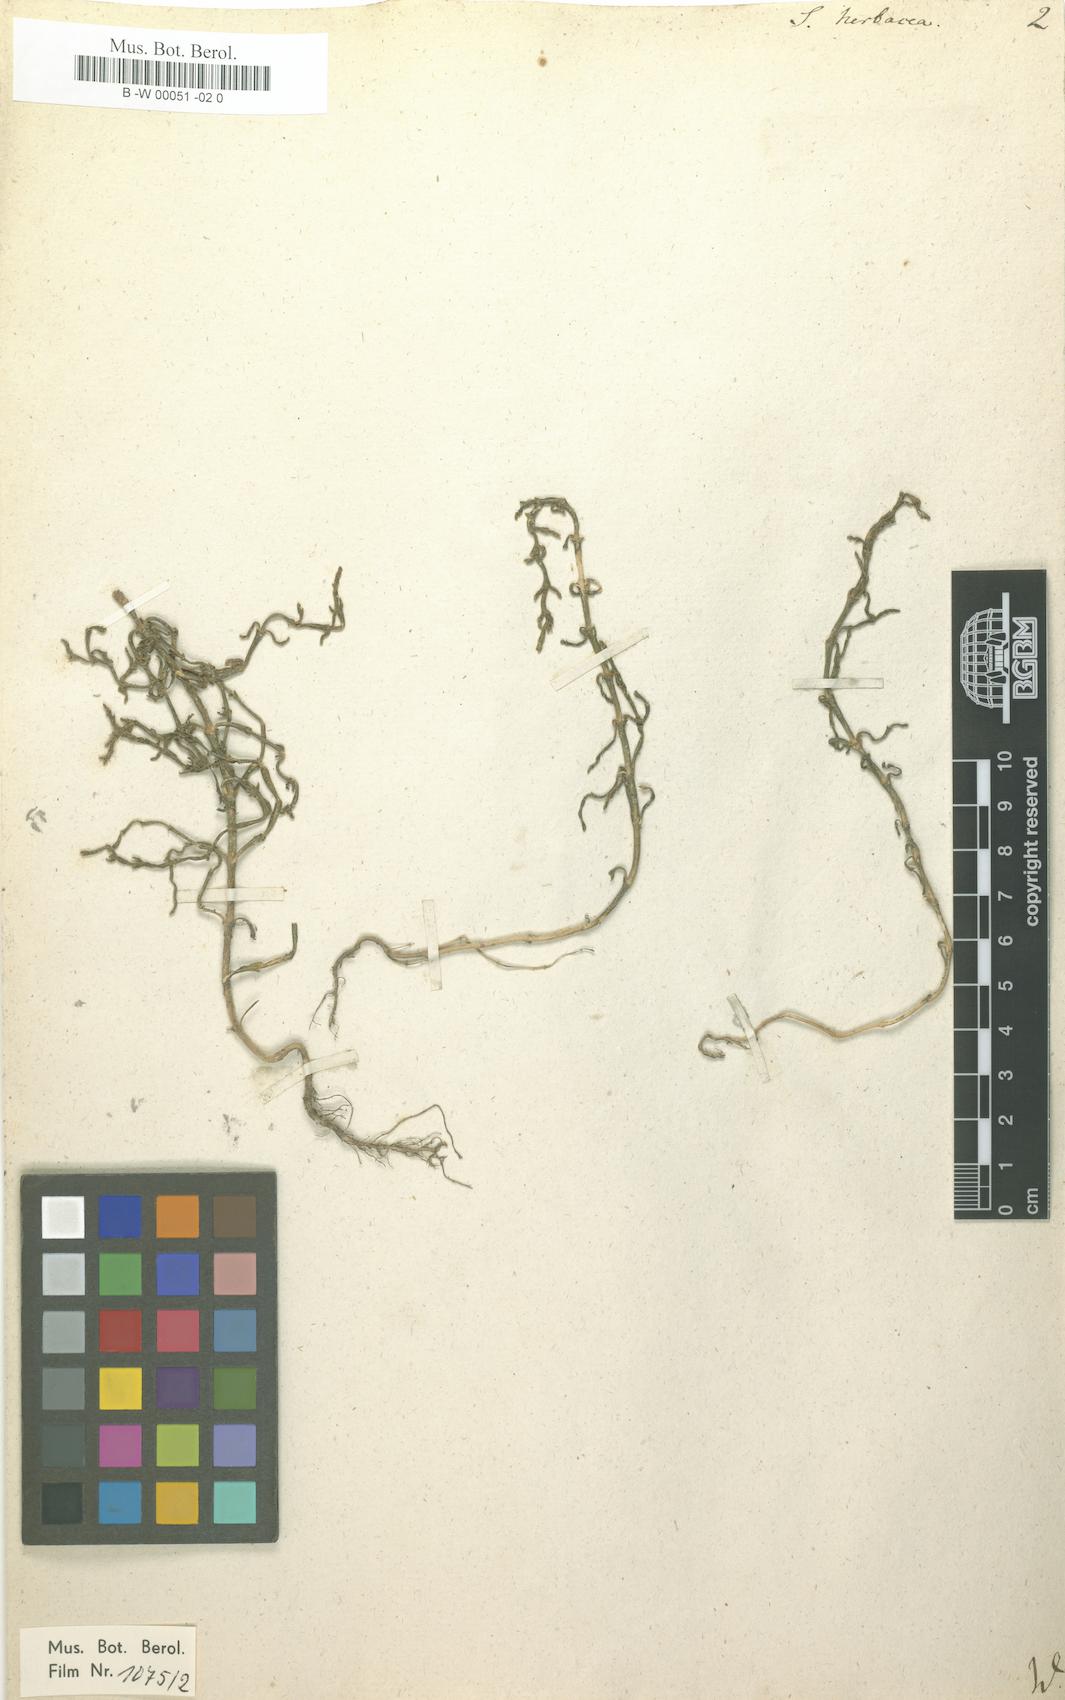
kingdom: Plantae
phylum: Tracheophyta
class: Magnoliopsida
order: Caryophyllales
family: Amaranthaceae
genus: Salicornia
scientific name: Salicornia europaea
